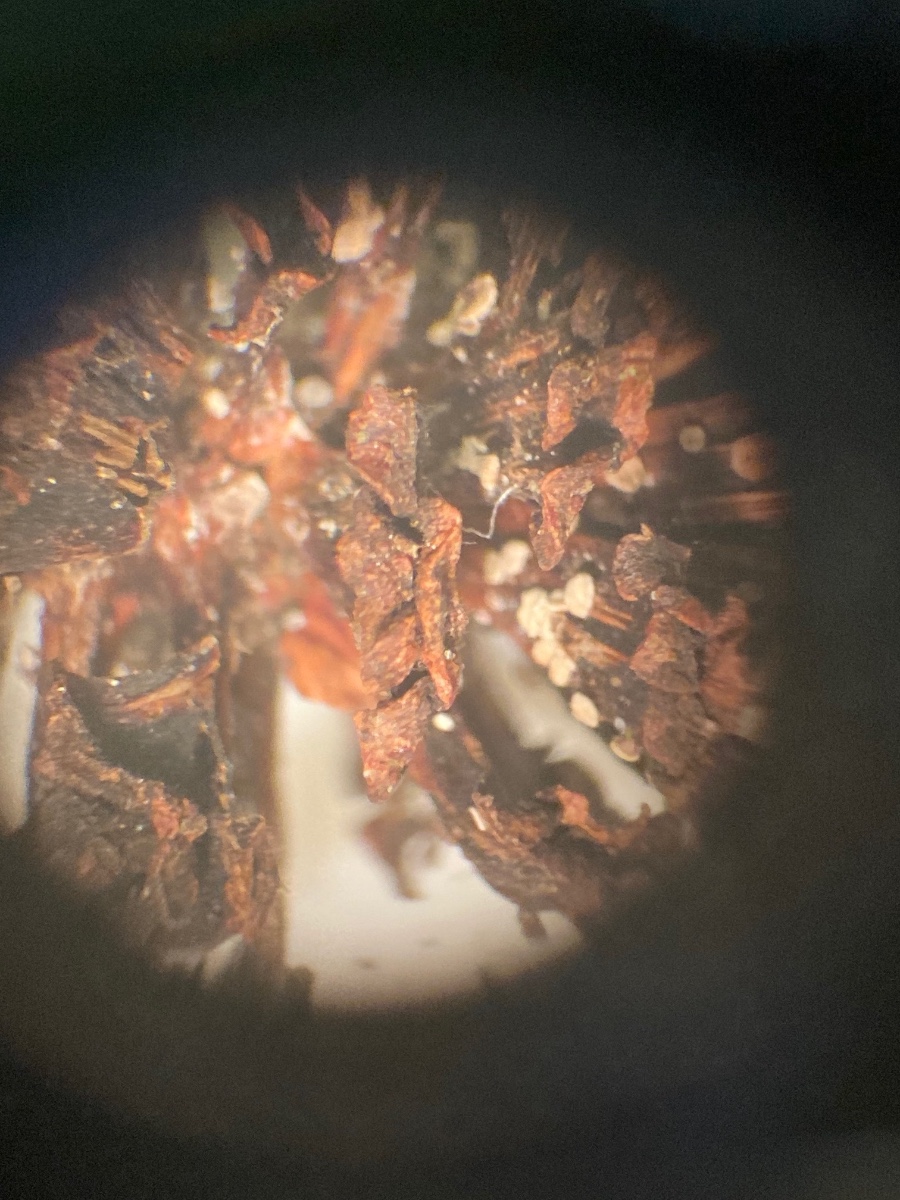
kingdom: Fungi
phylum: Ascomycota
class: Leotiomycetes
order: Helotiales
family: Pezizellaceae
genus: Calycina
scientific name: Calycina alniella
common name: ellekogle-stilkskive
